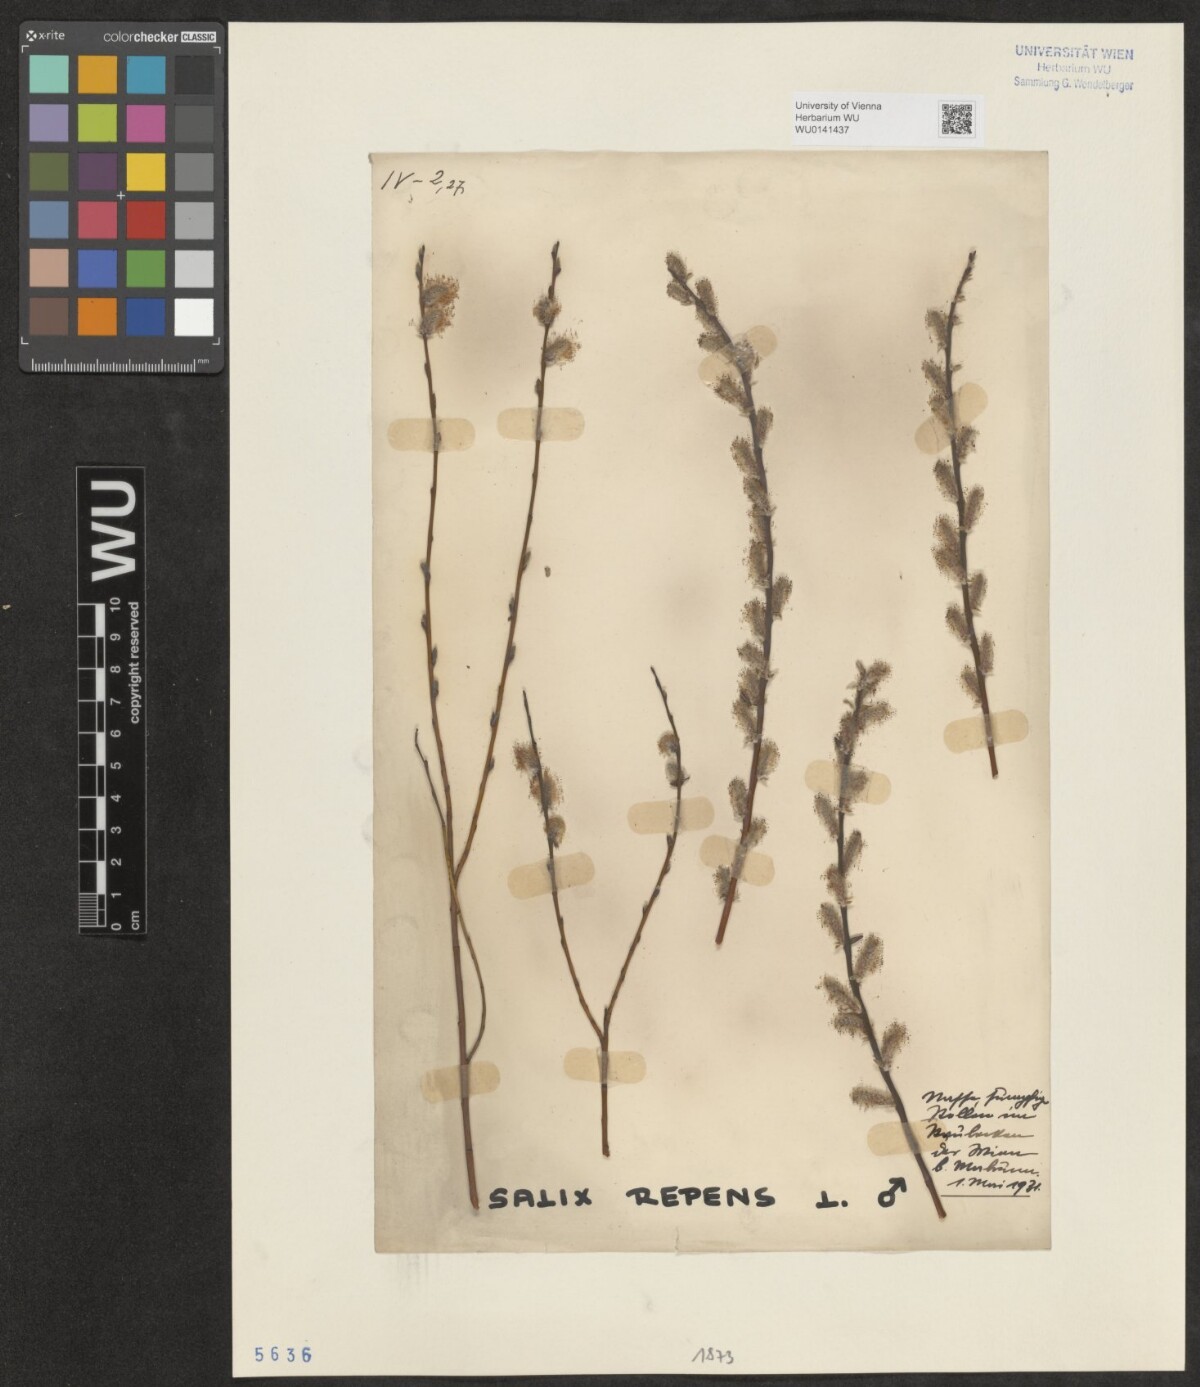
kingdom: Plantae
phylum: Tracheophyta
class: Magnoliopsida
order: Malpighiales
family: Salicaceae
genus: Salix
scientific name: Salix repens
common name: Creeping willow
